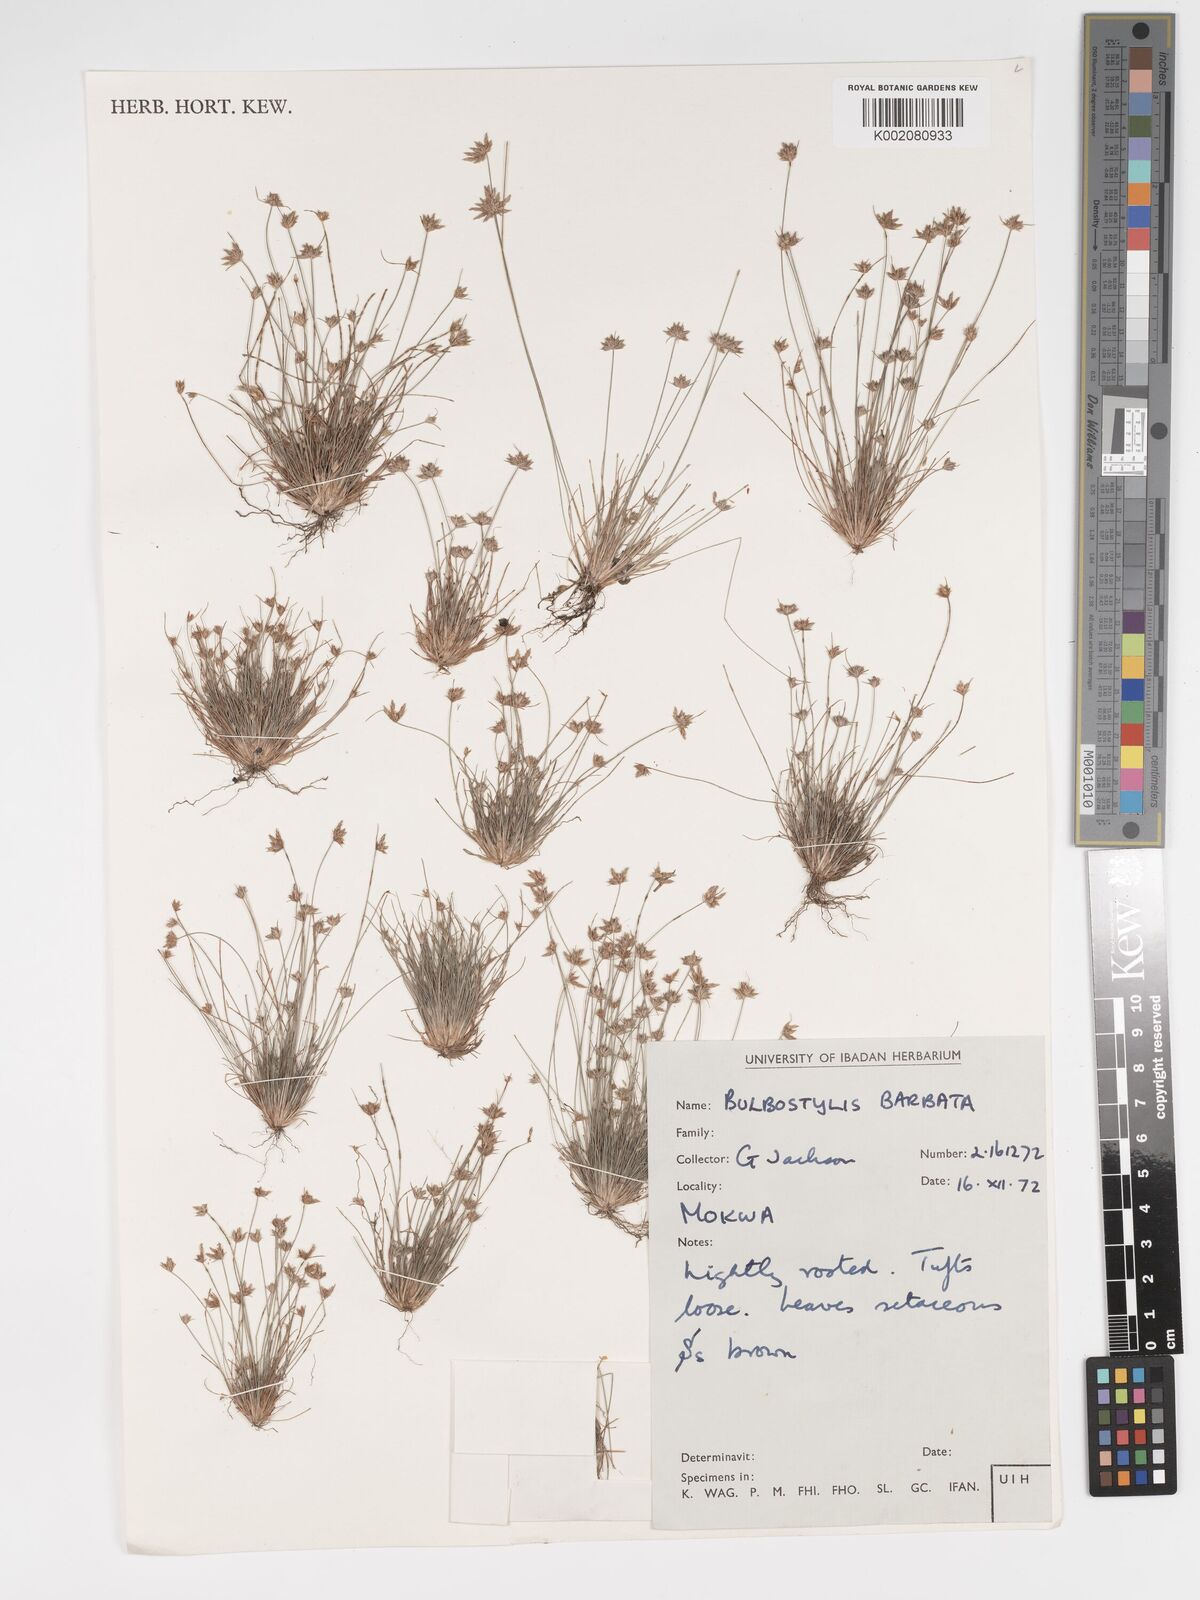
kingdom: Plantae
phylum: Tracheophyta
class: Liliopsida
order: Poales
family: Cyperaceae
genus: Bulbostylis
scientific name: Bulbostylis barbata
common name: Watergrass
